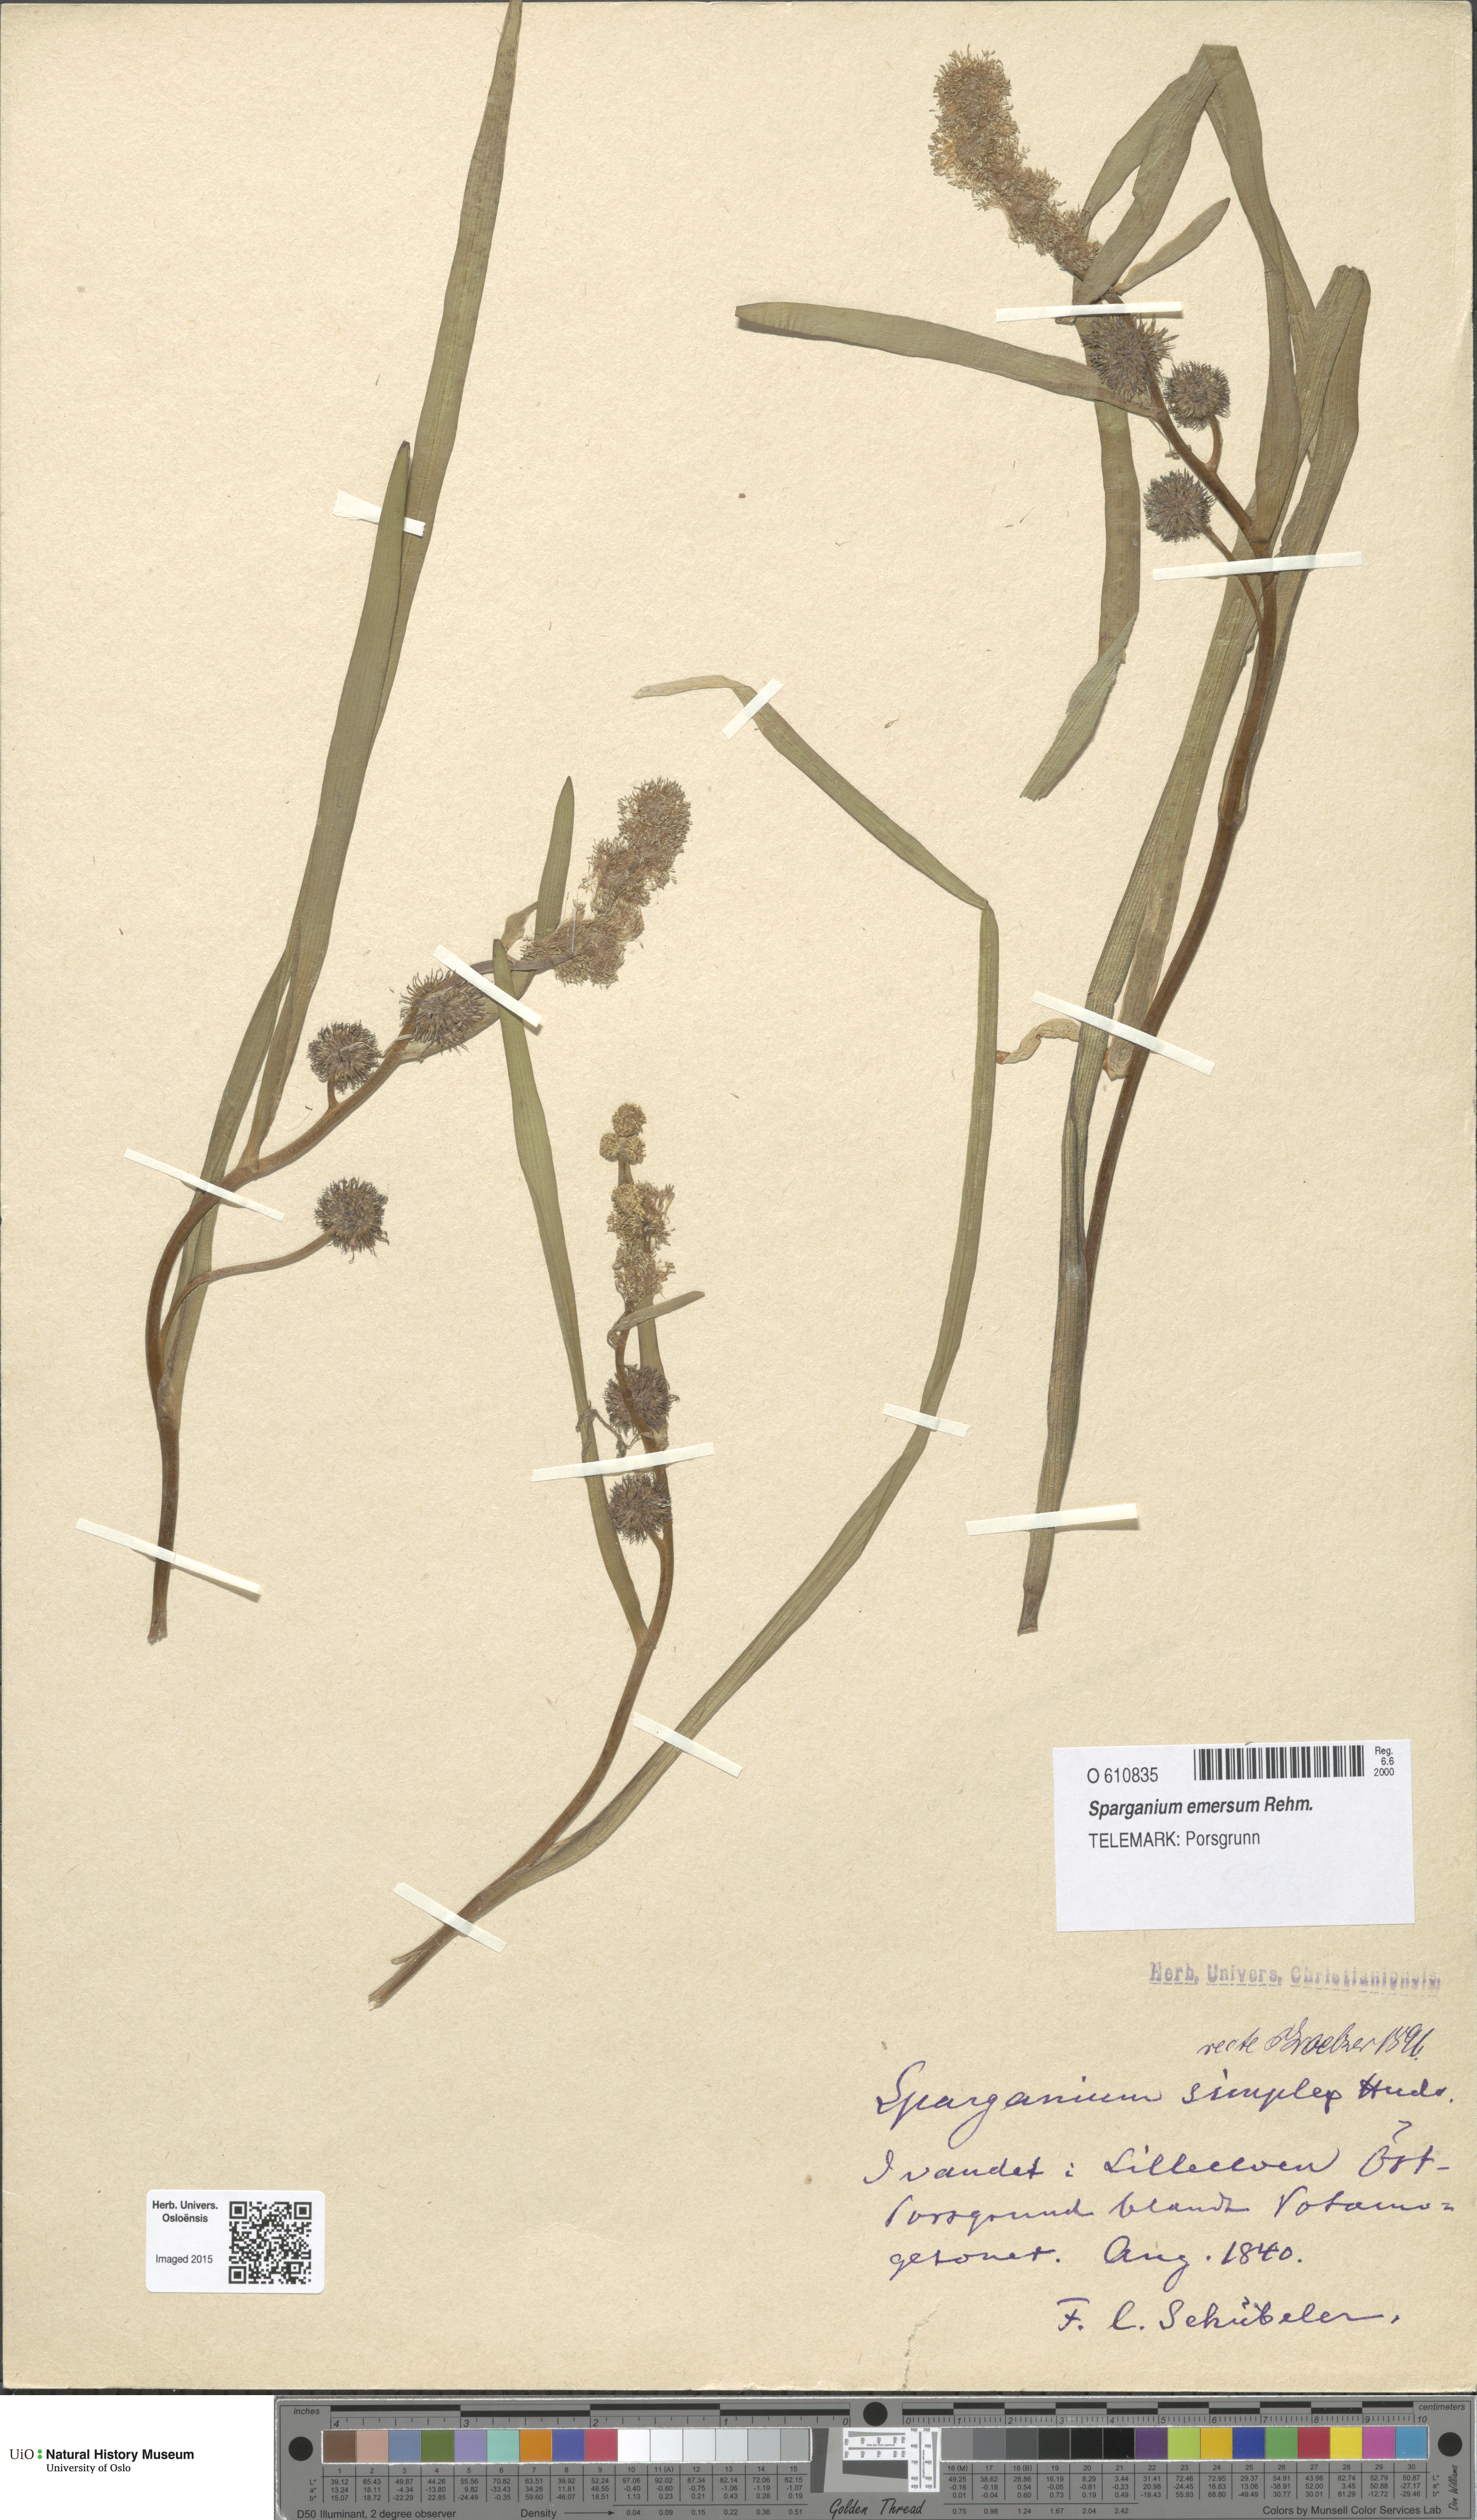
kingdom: Plantae
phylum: Tracheophyta
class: Liliopsida
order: Poales
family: Typhaceae
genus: Sparganium
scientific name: Sparganium emersum
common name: Unbranched bur-reed
